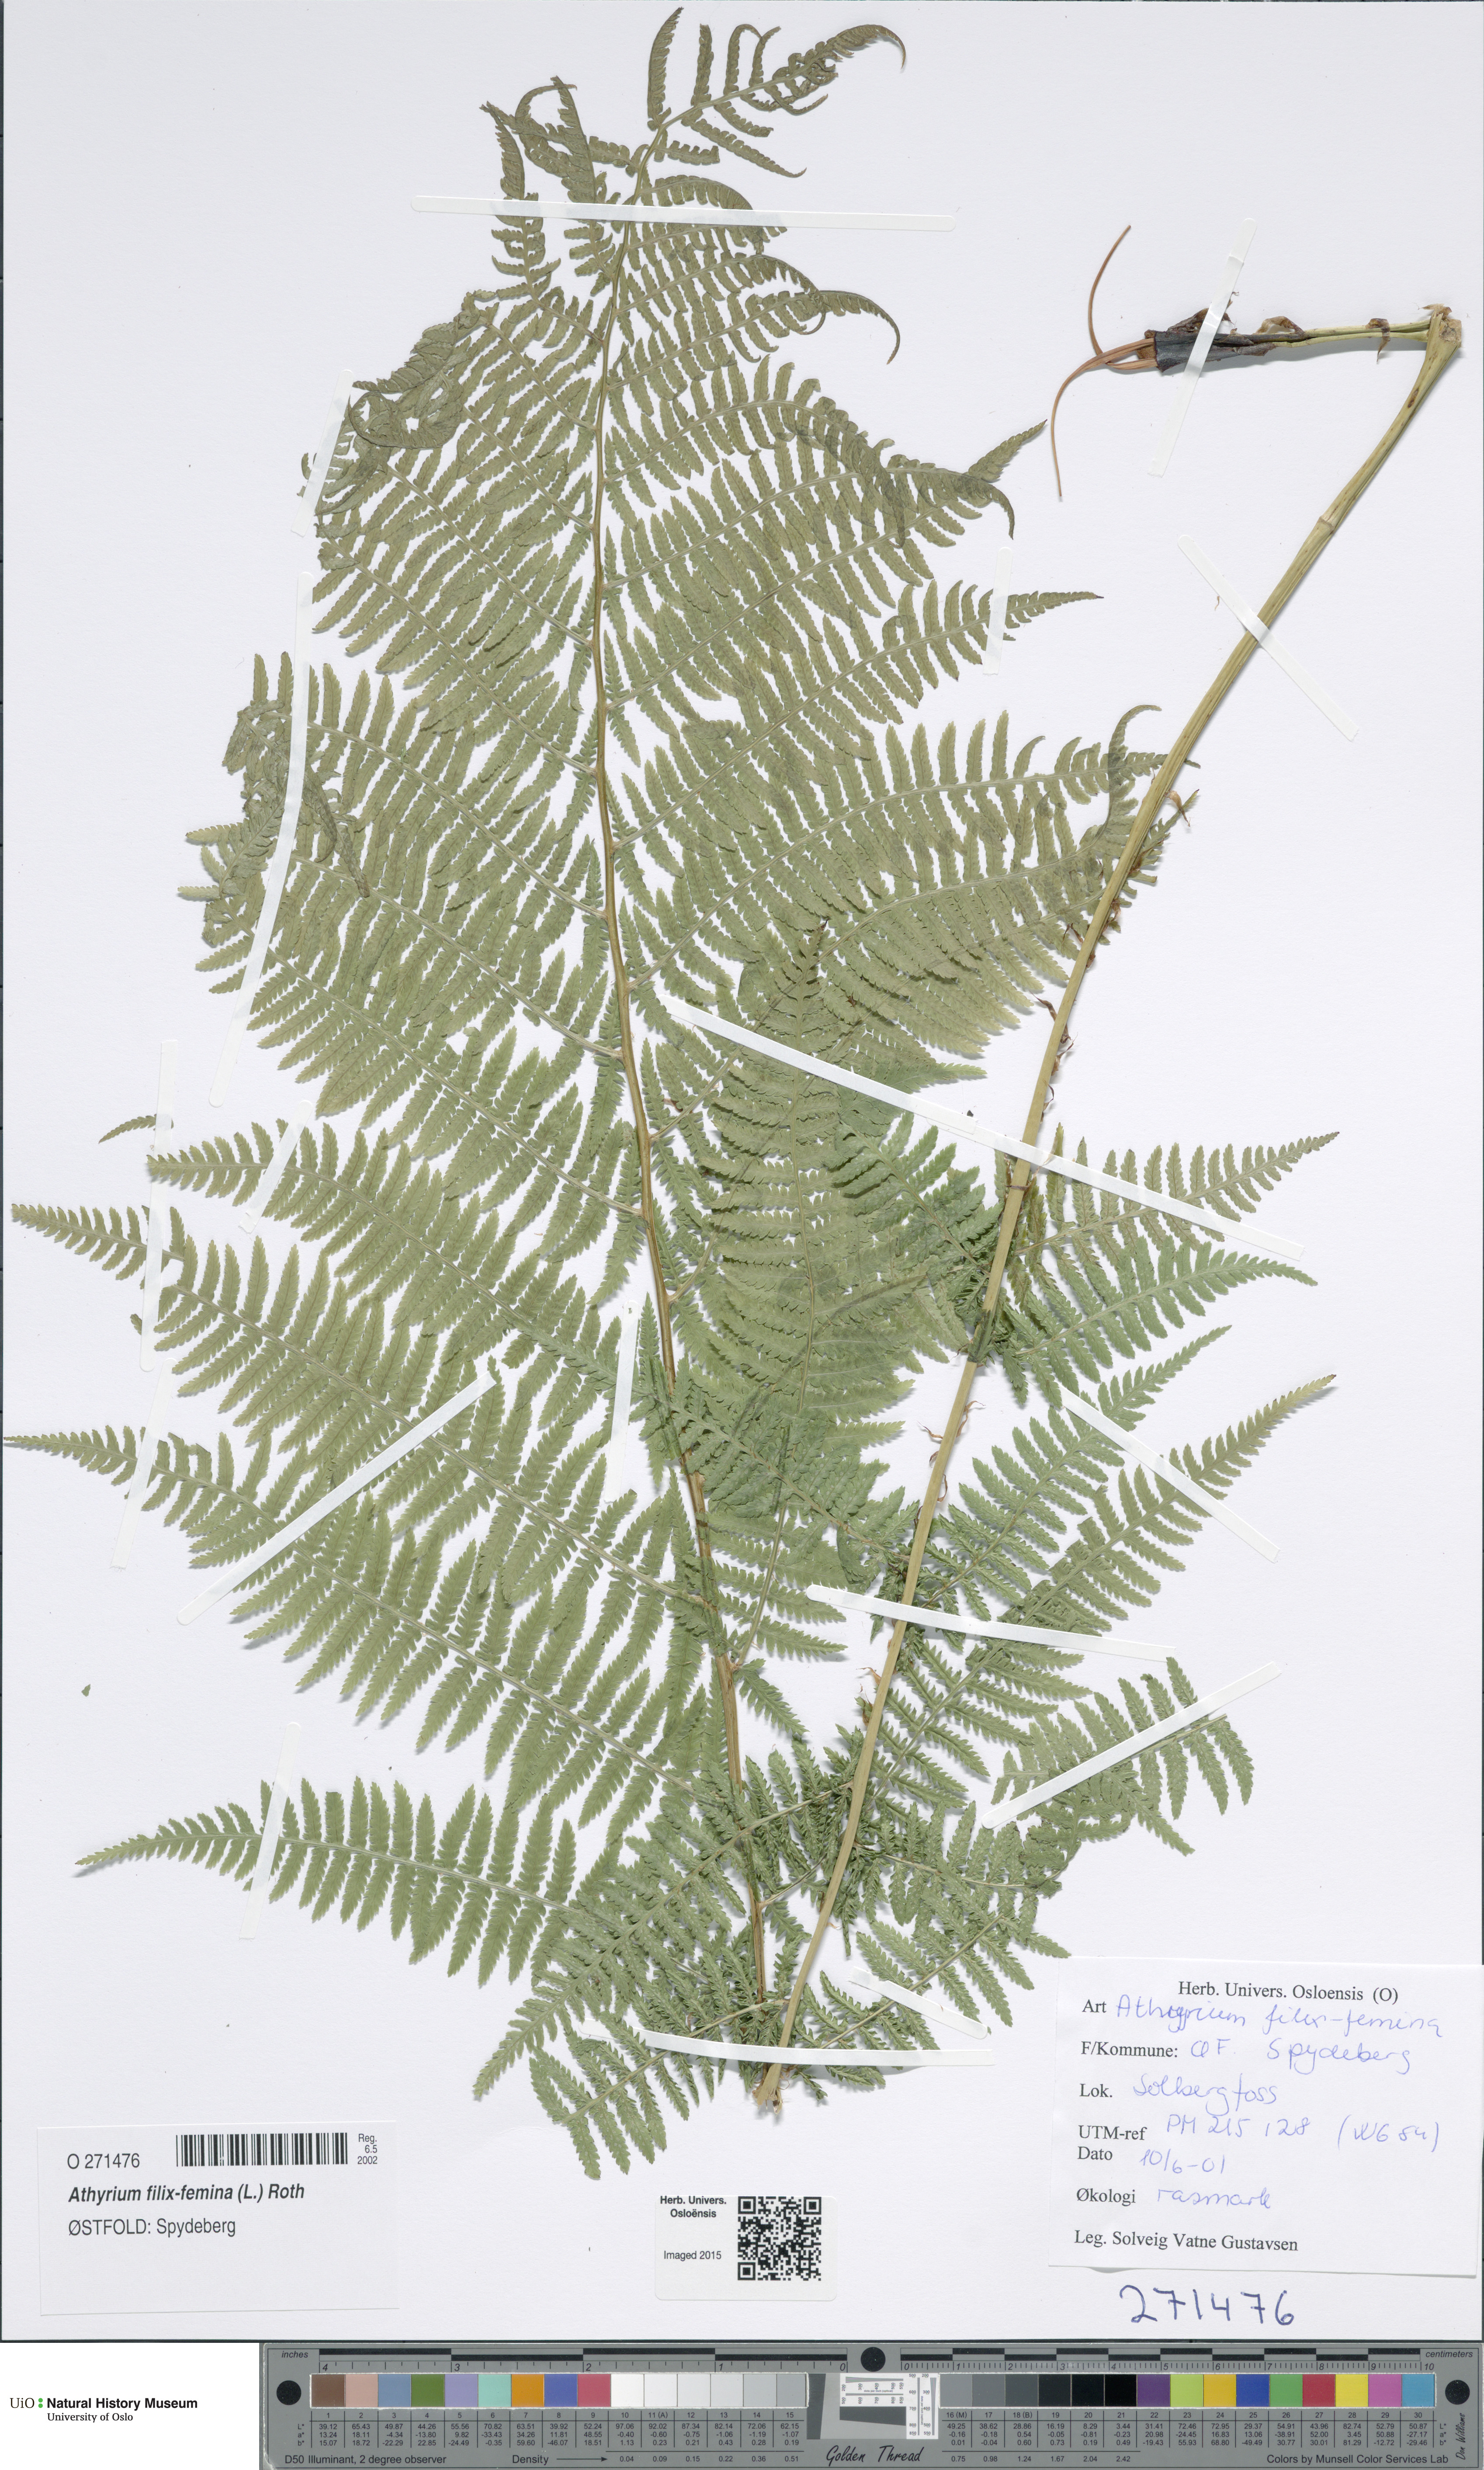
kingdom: Plantae
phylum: Tracheophyta
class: Polypodiopsida
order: Polypodiales
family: Athyriaceae
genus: Athyrium
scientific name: Athyrium filix-femina
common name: Lady fern
